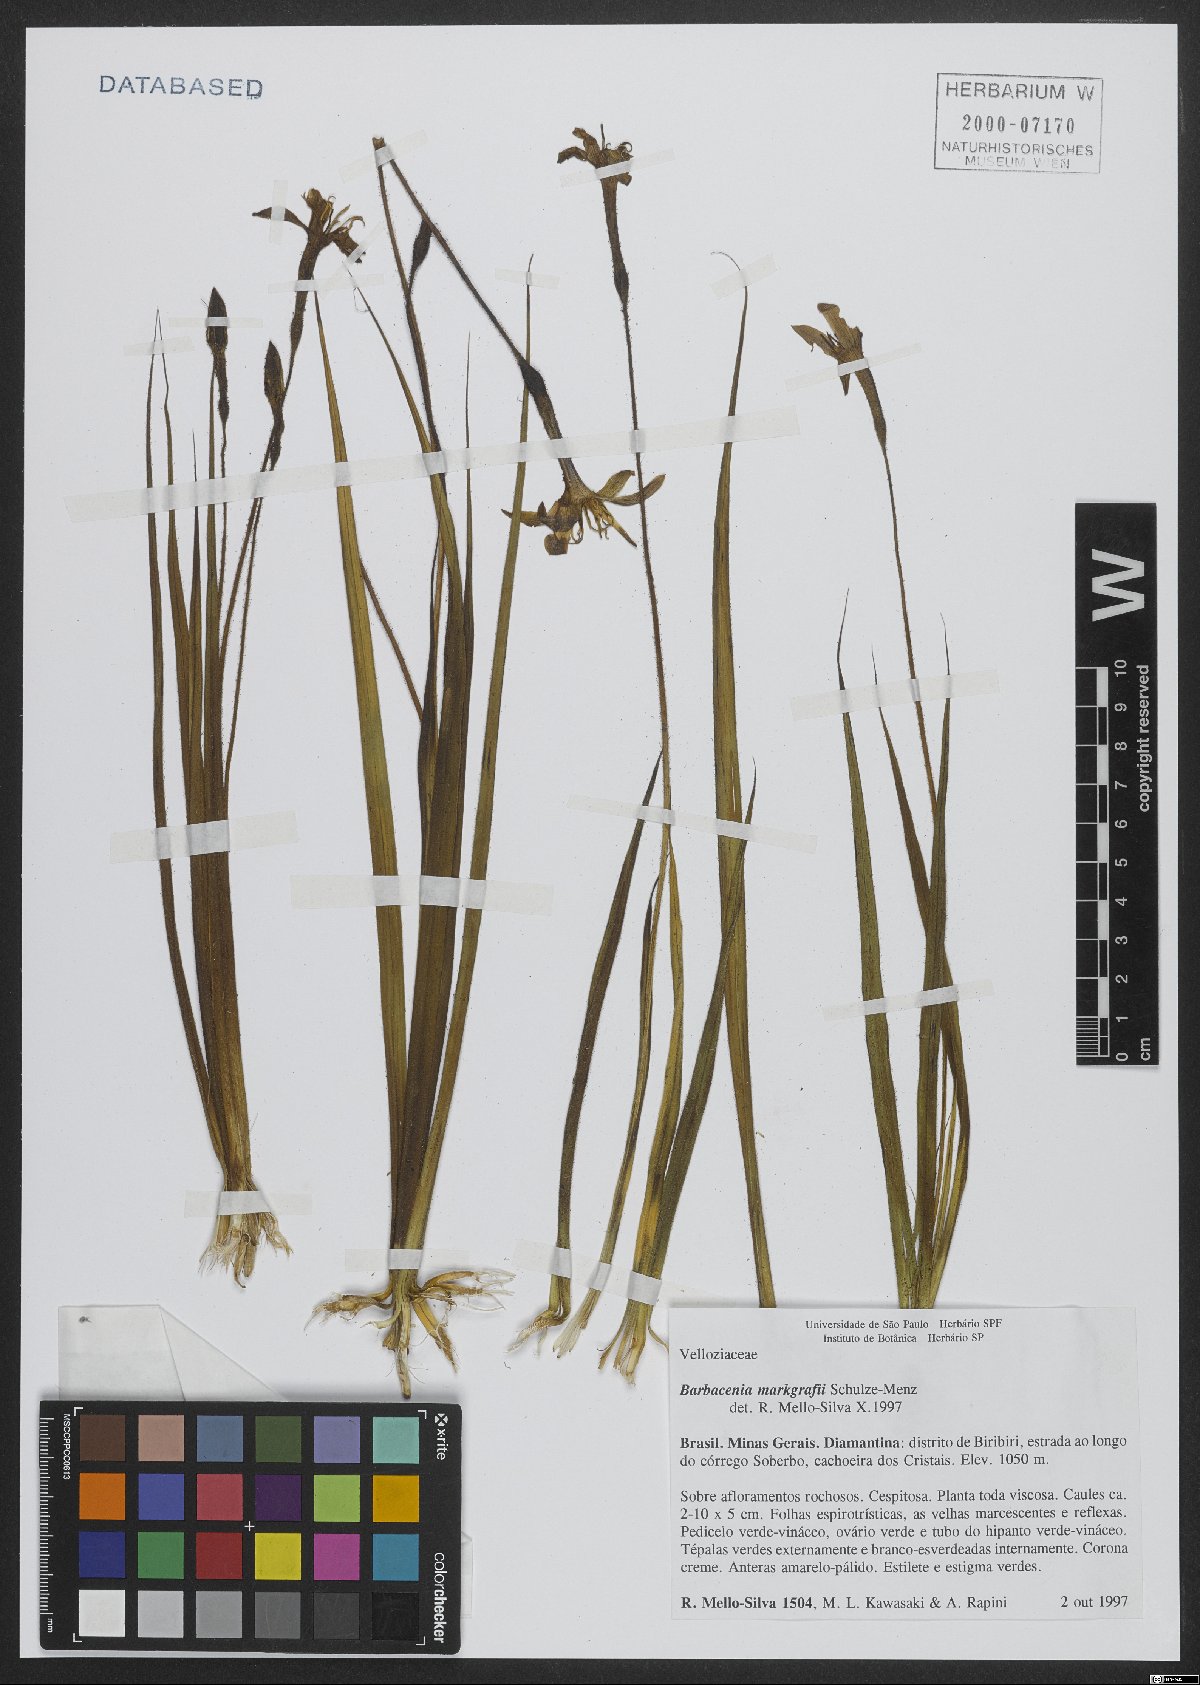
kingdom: Plantae
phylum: Tracheophyta
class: Liliopsida
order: Pandanales
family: Velloziaceae
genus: Barbacenia
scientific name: Barbacenia markgrafii
